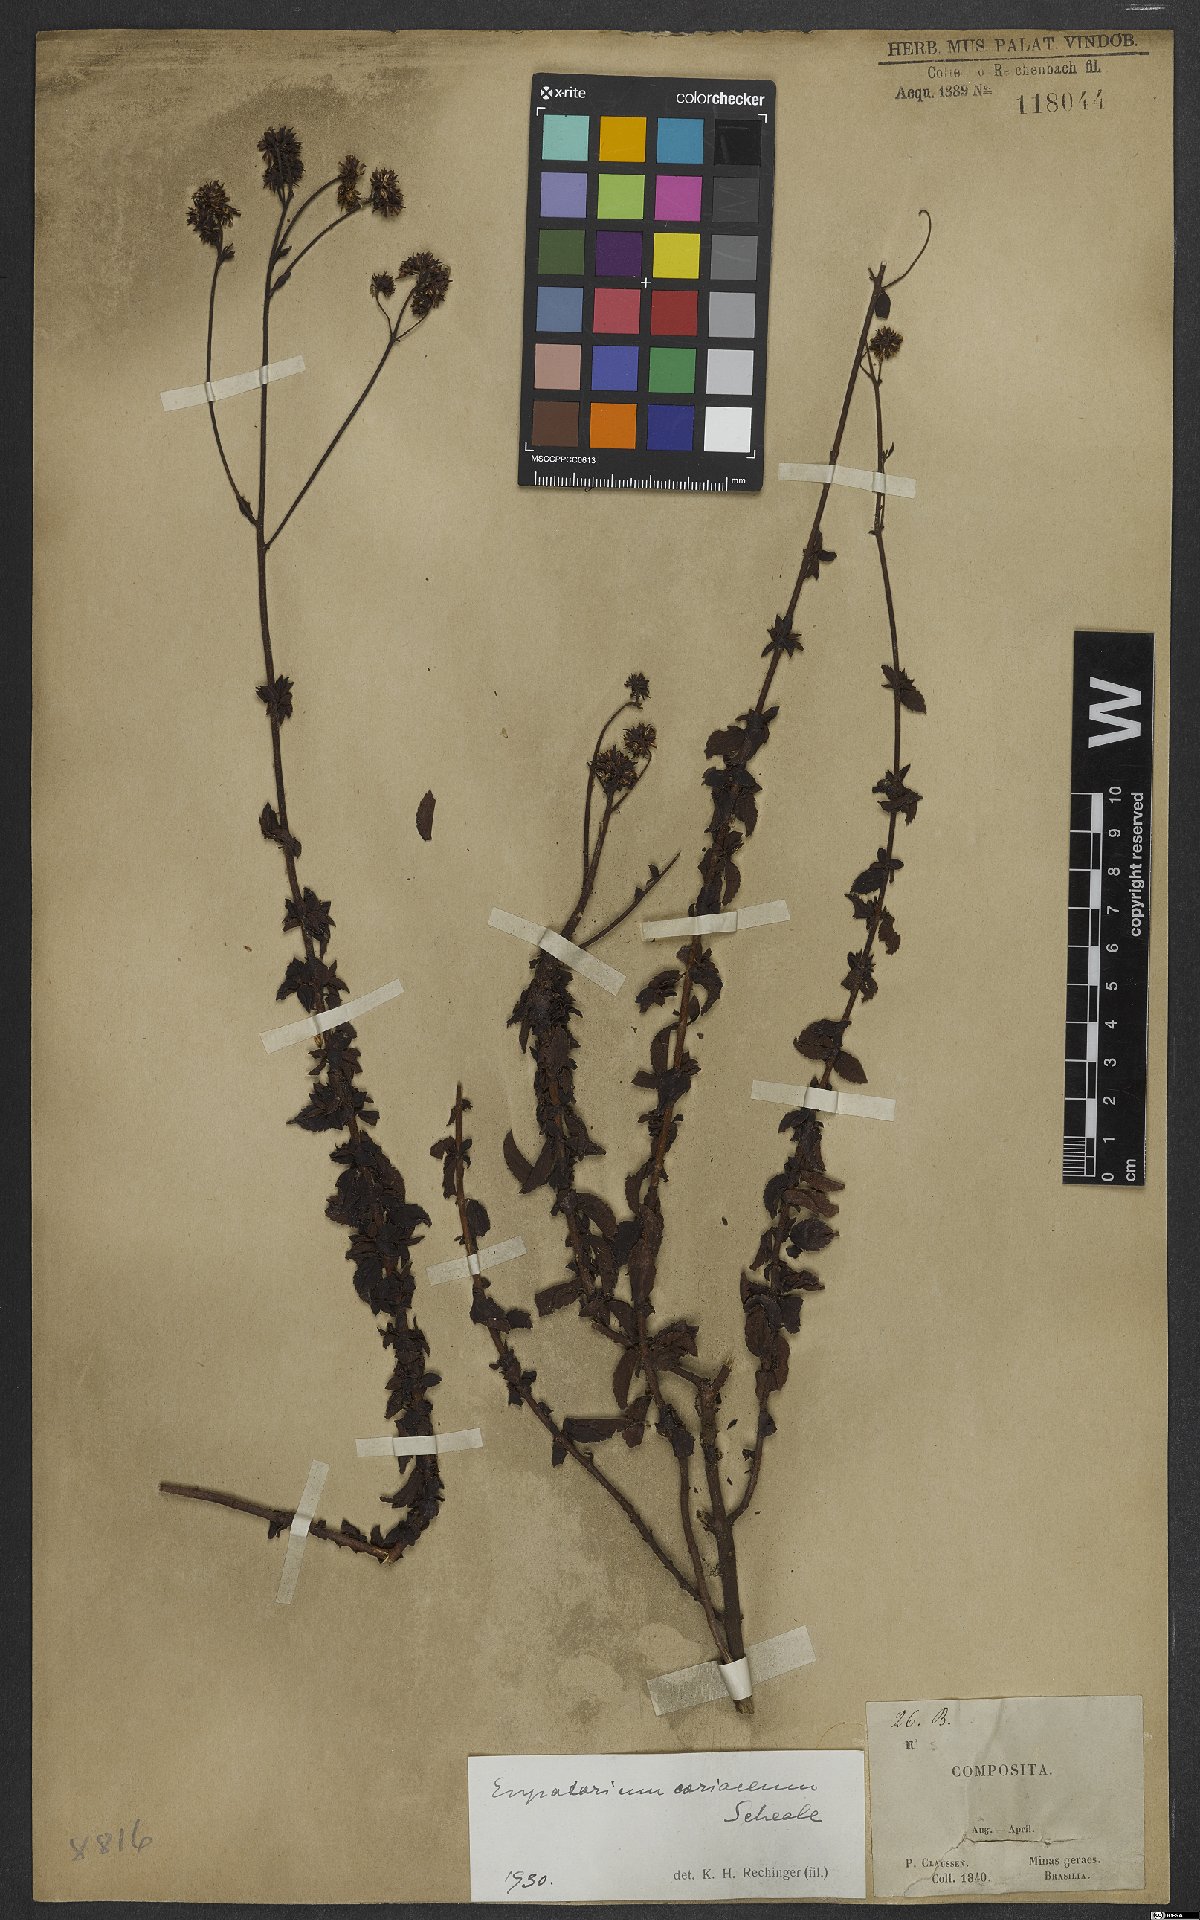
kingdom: Plantae
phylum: Tracheophyta
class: Magnoliopsida
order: Asterales
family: Asteraceae
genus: Grazielia
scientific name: Grazielia coriacea
